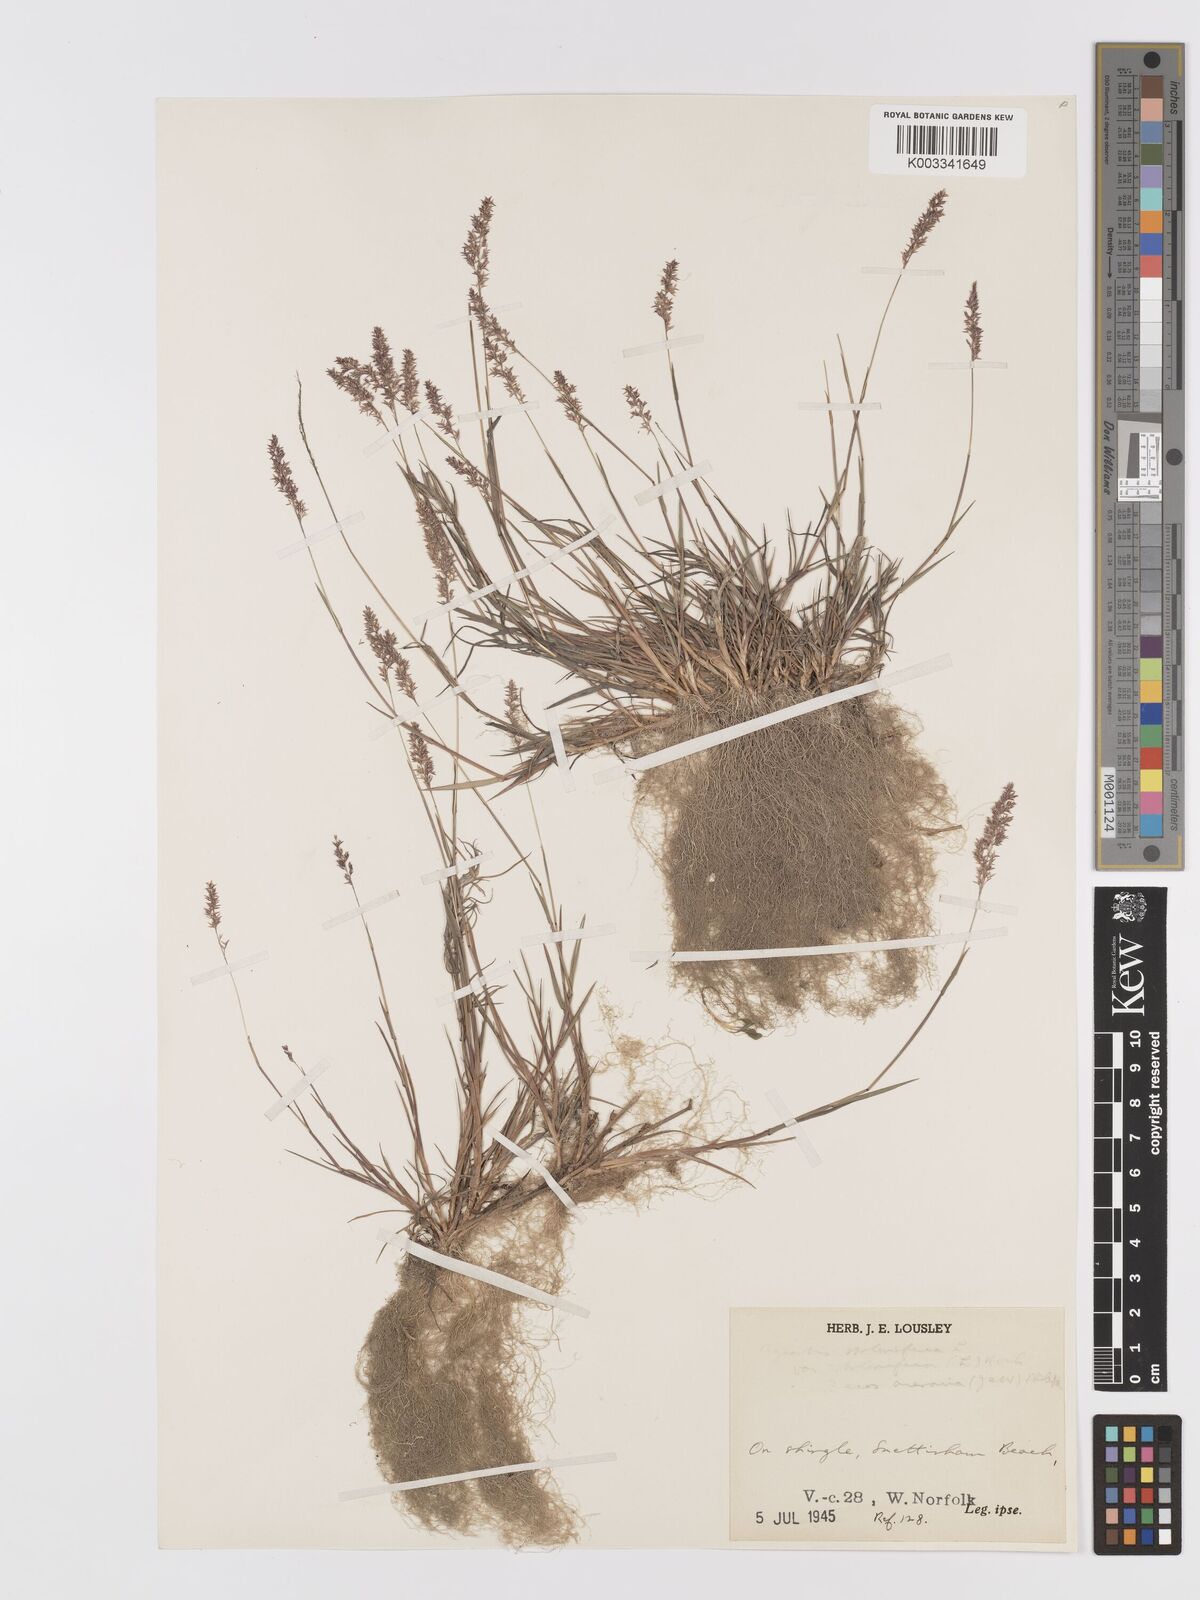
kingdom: Plantae
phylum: Tracheophyta
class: Liliopsida
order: Poales
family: Poaceae
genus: Agrostis
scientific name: Agrostis stolonifera
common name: Creeping bentgrass
